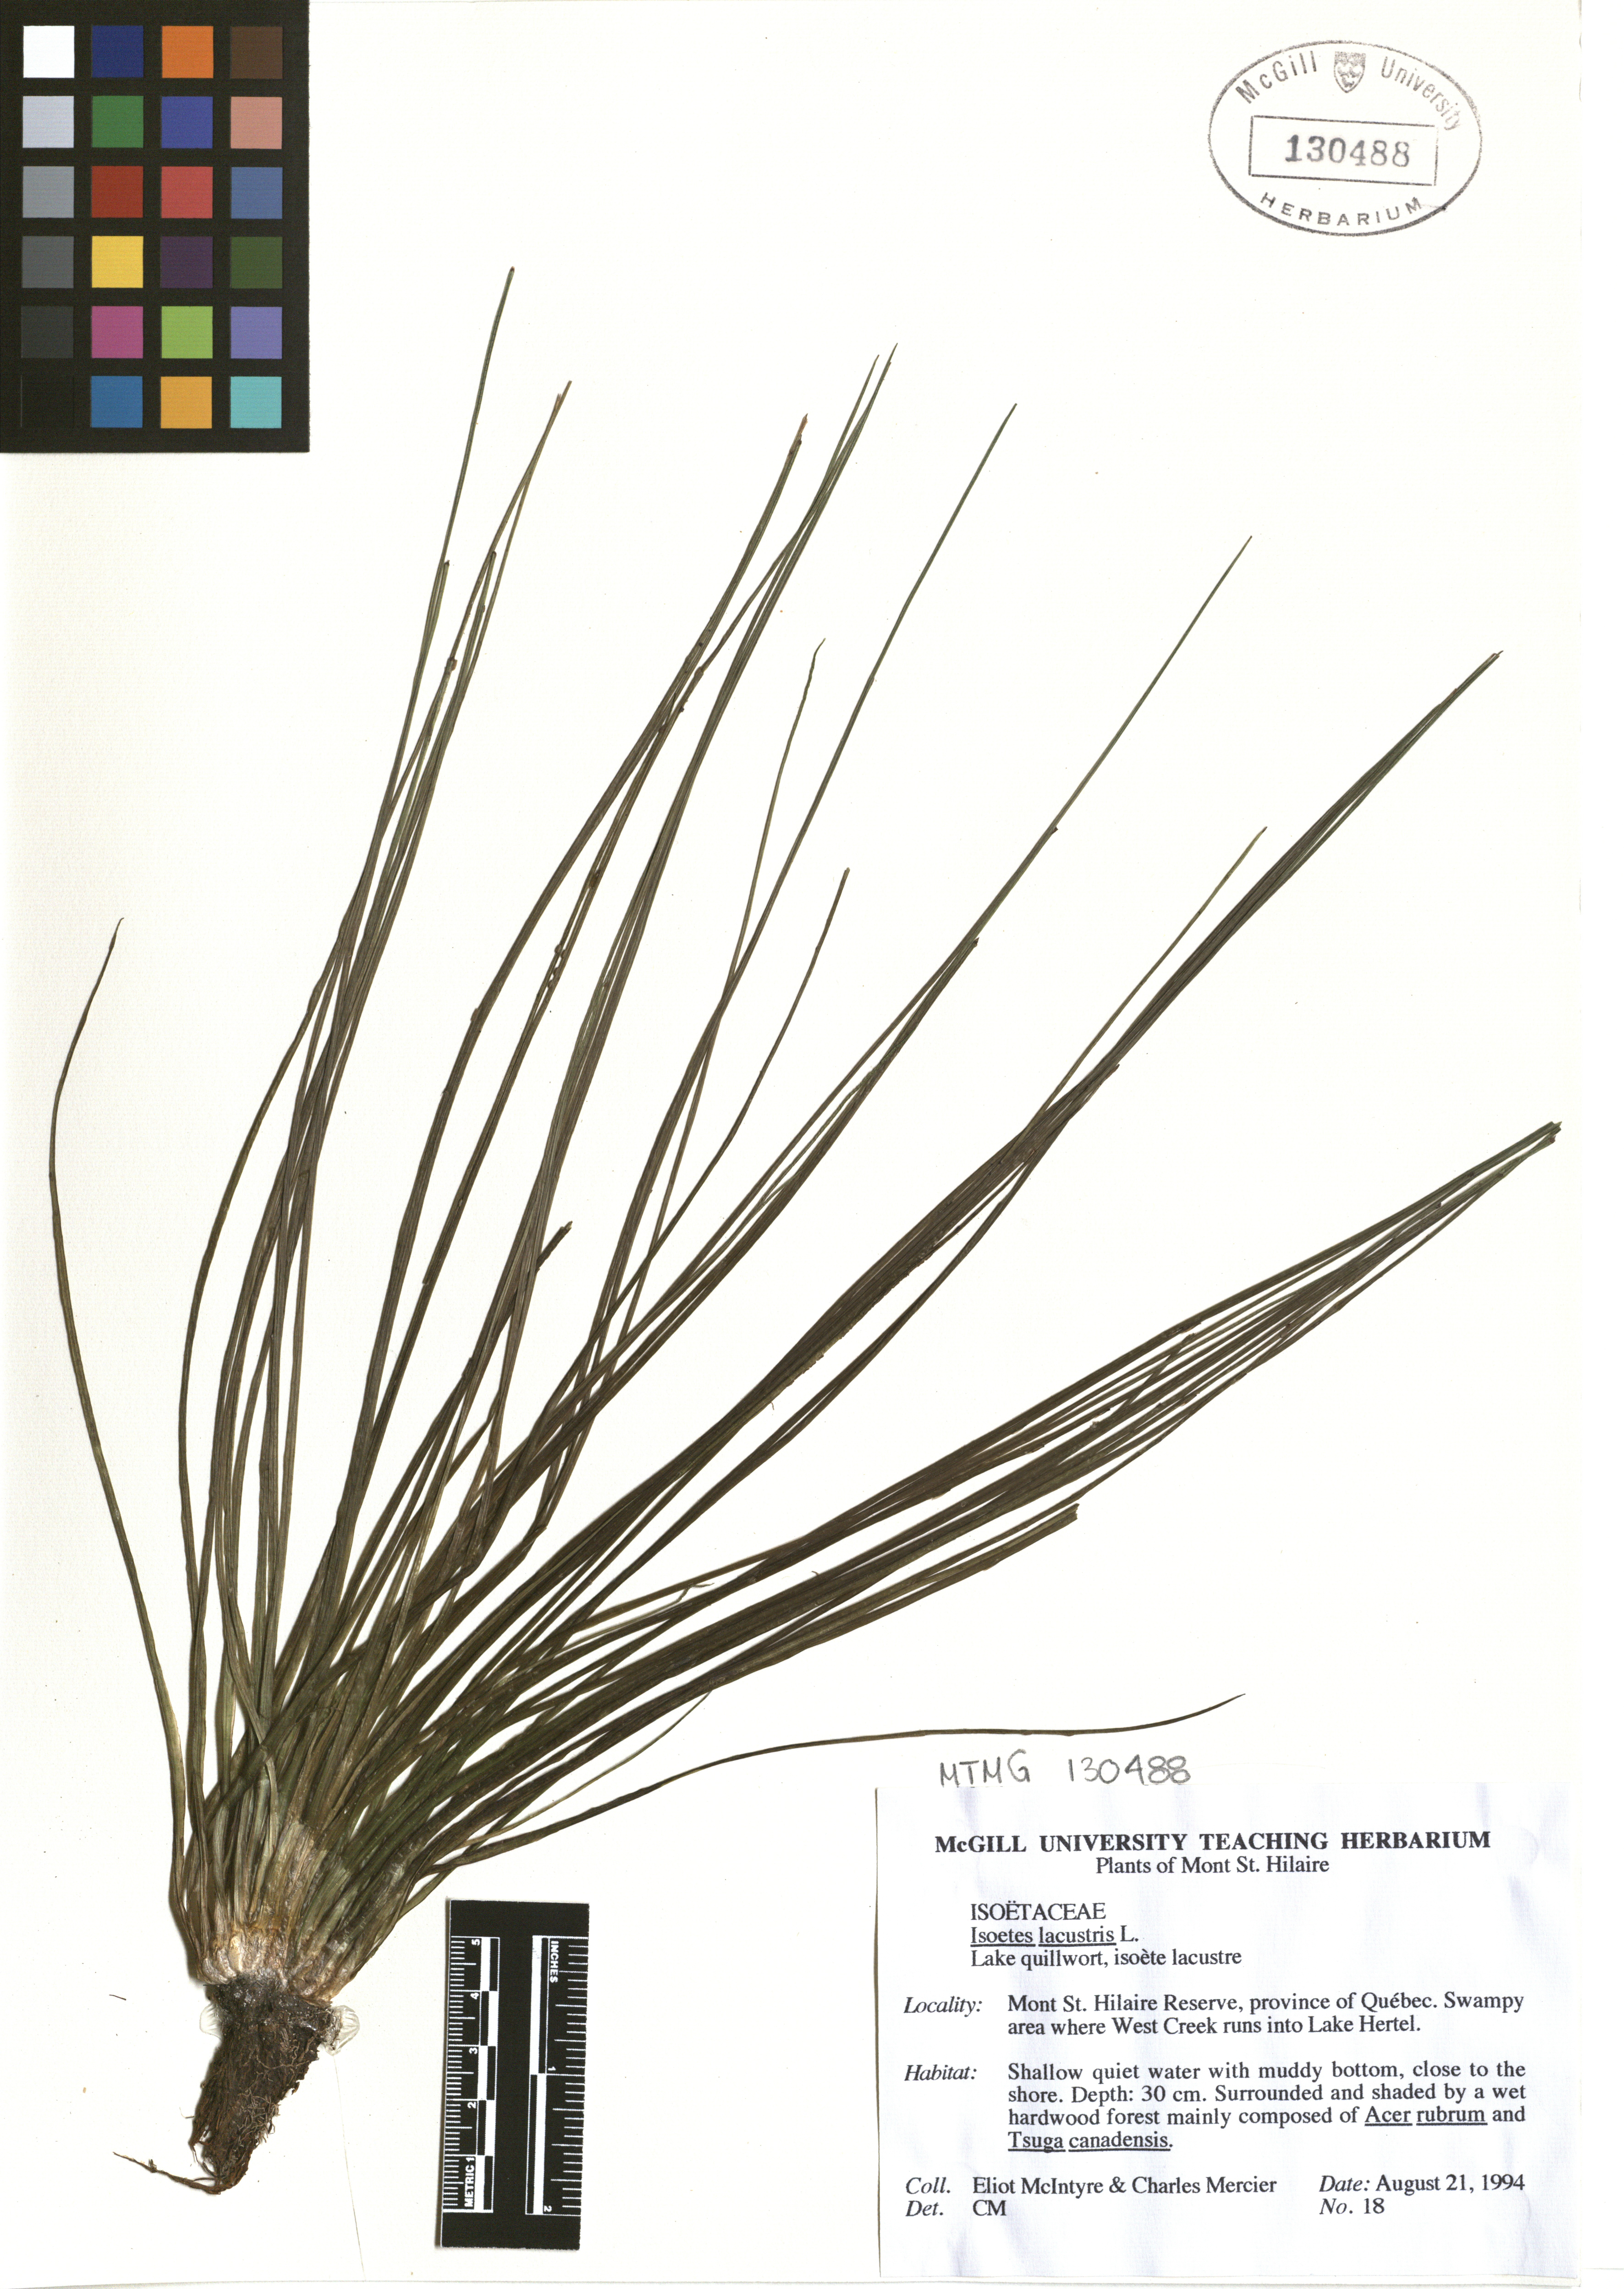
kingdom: Plantae
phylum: Tracheophyta
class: Lycopodiopsida
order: Isoetales
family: Isoetaceae
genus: Isoetes
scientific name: Isoetes lacustris
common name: Common quillwort
